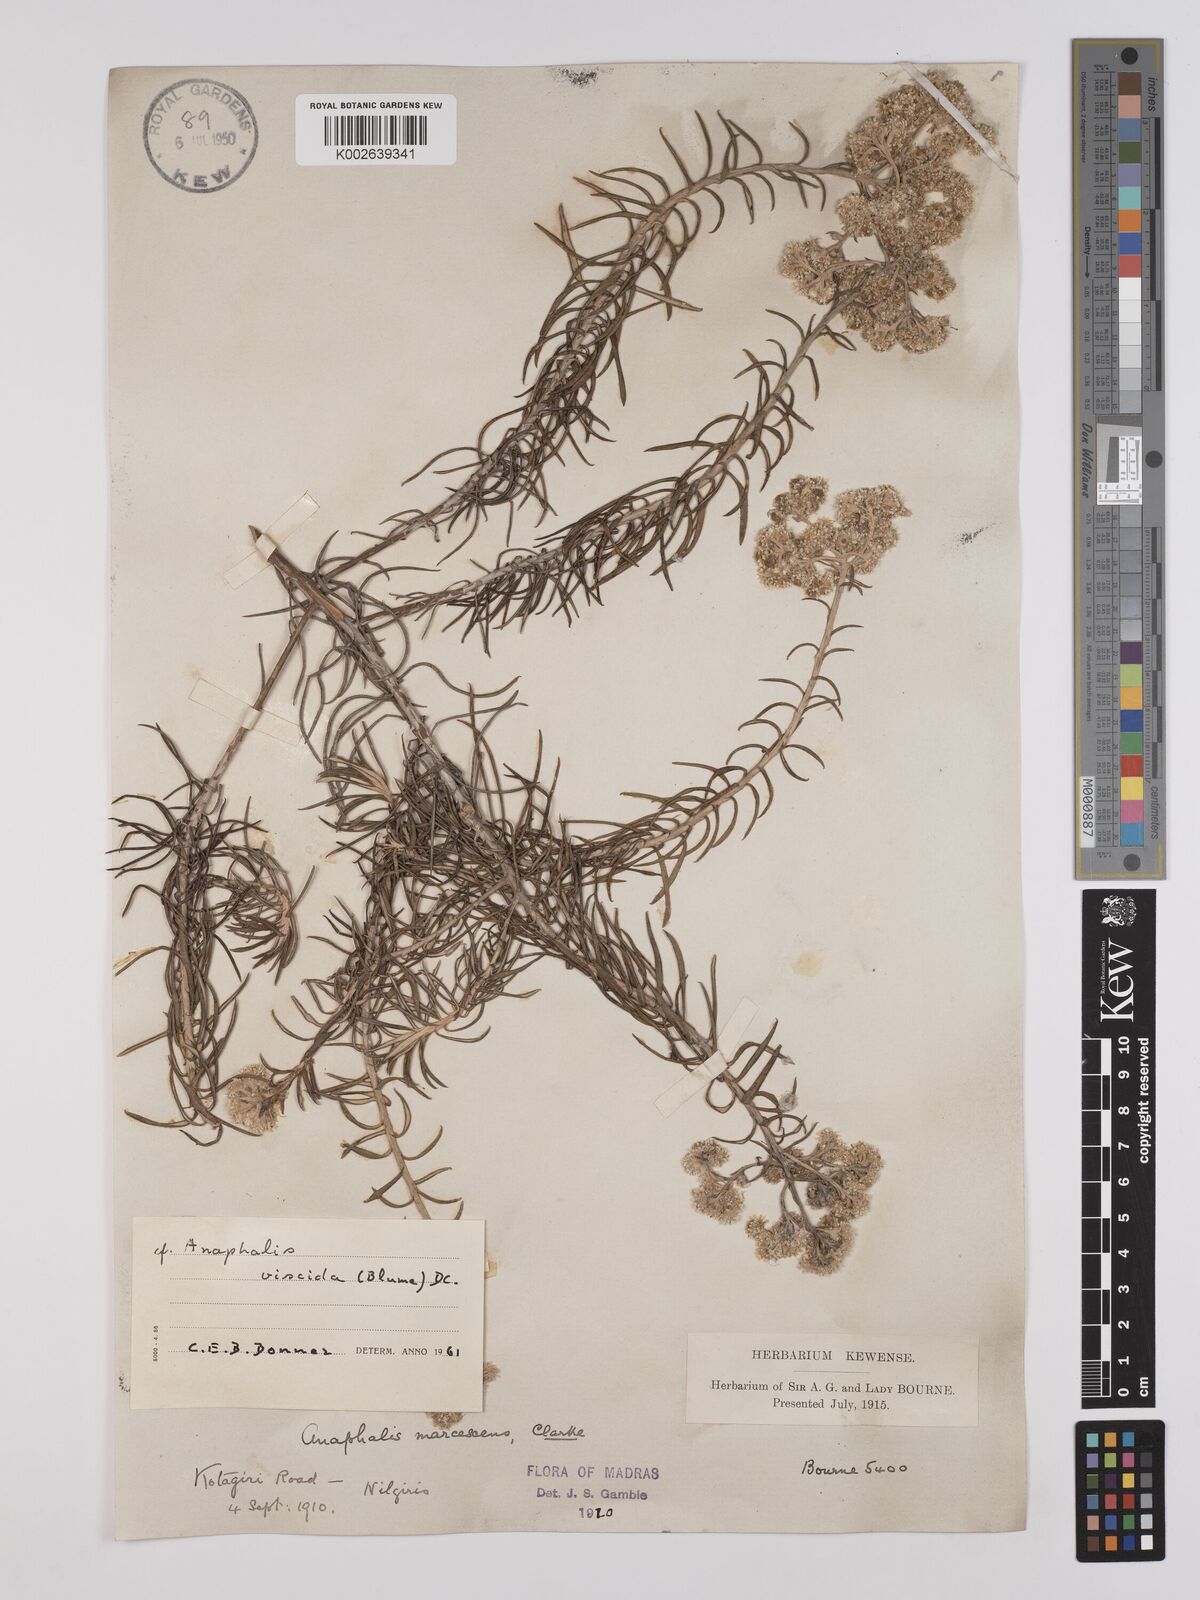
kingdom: Plantae
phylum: Tracheophyta
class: Magnoliopsida
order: Asterales
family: Asteraceae
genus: Anaphalis
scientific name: Anaphalis marcescens
